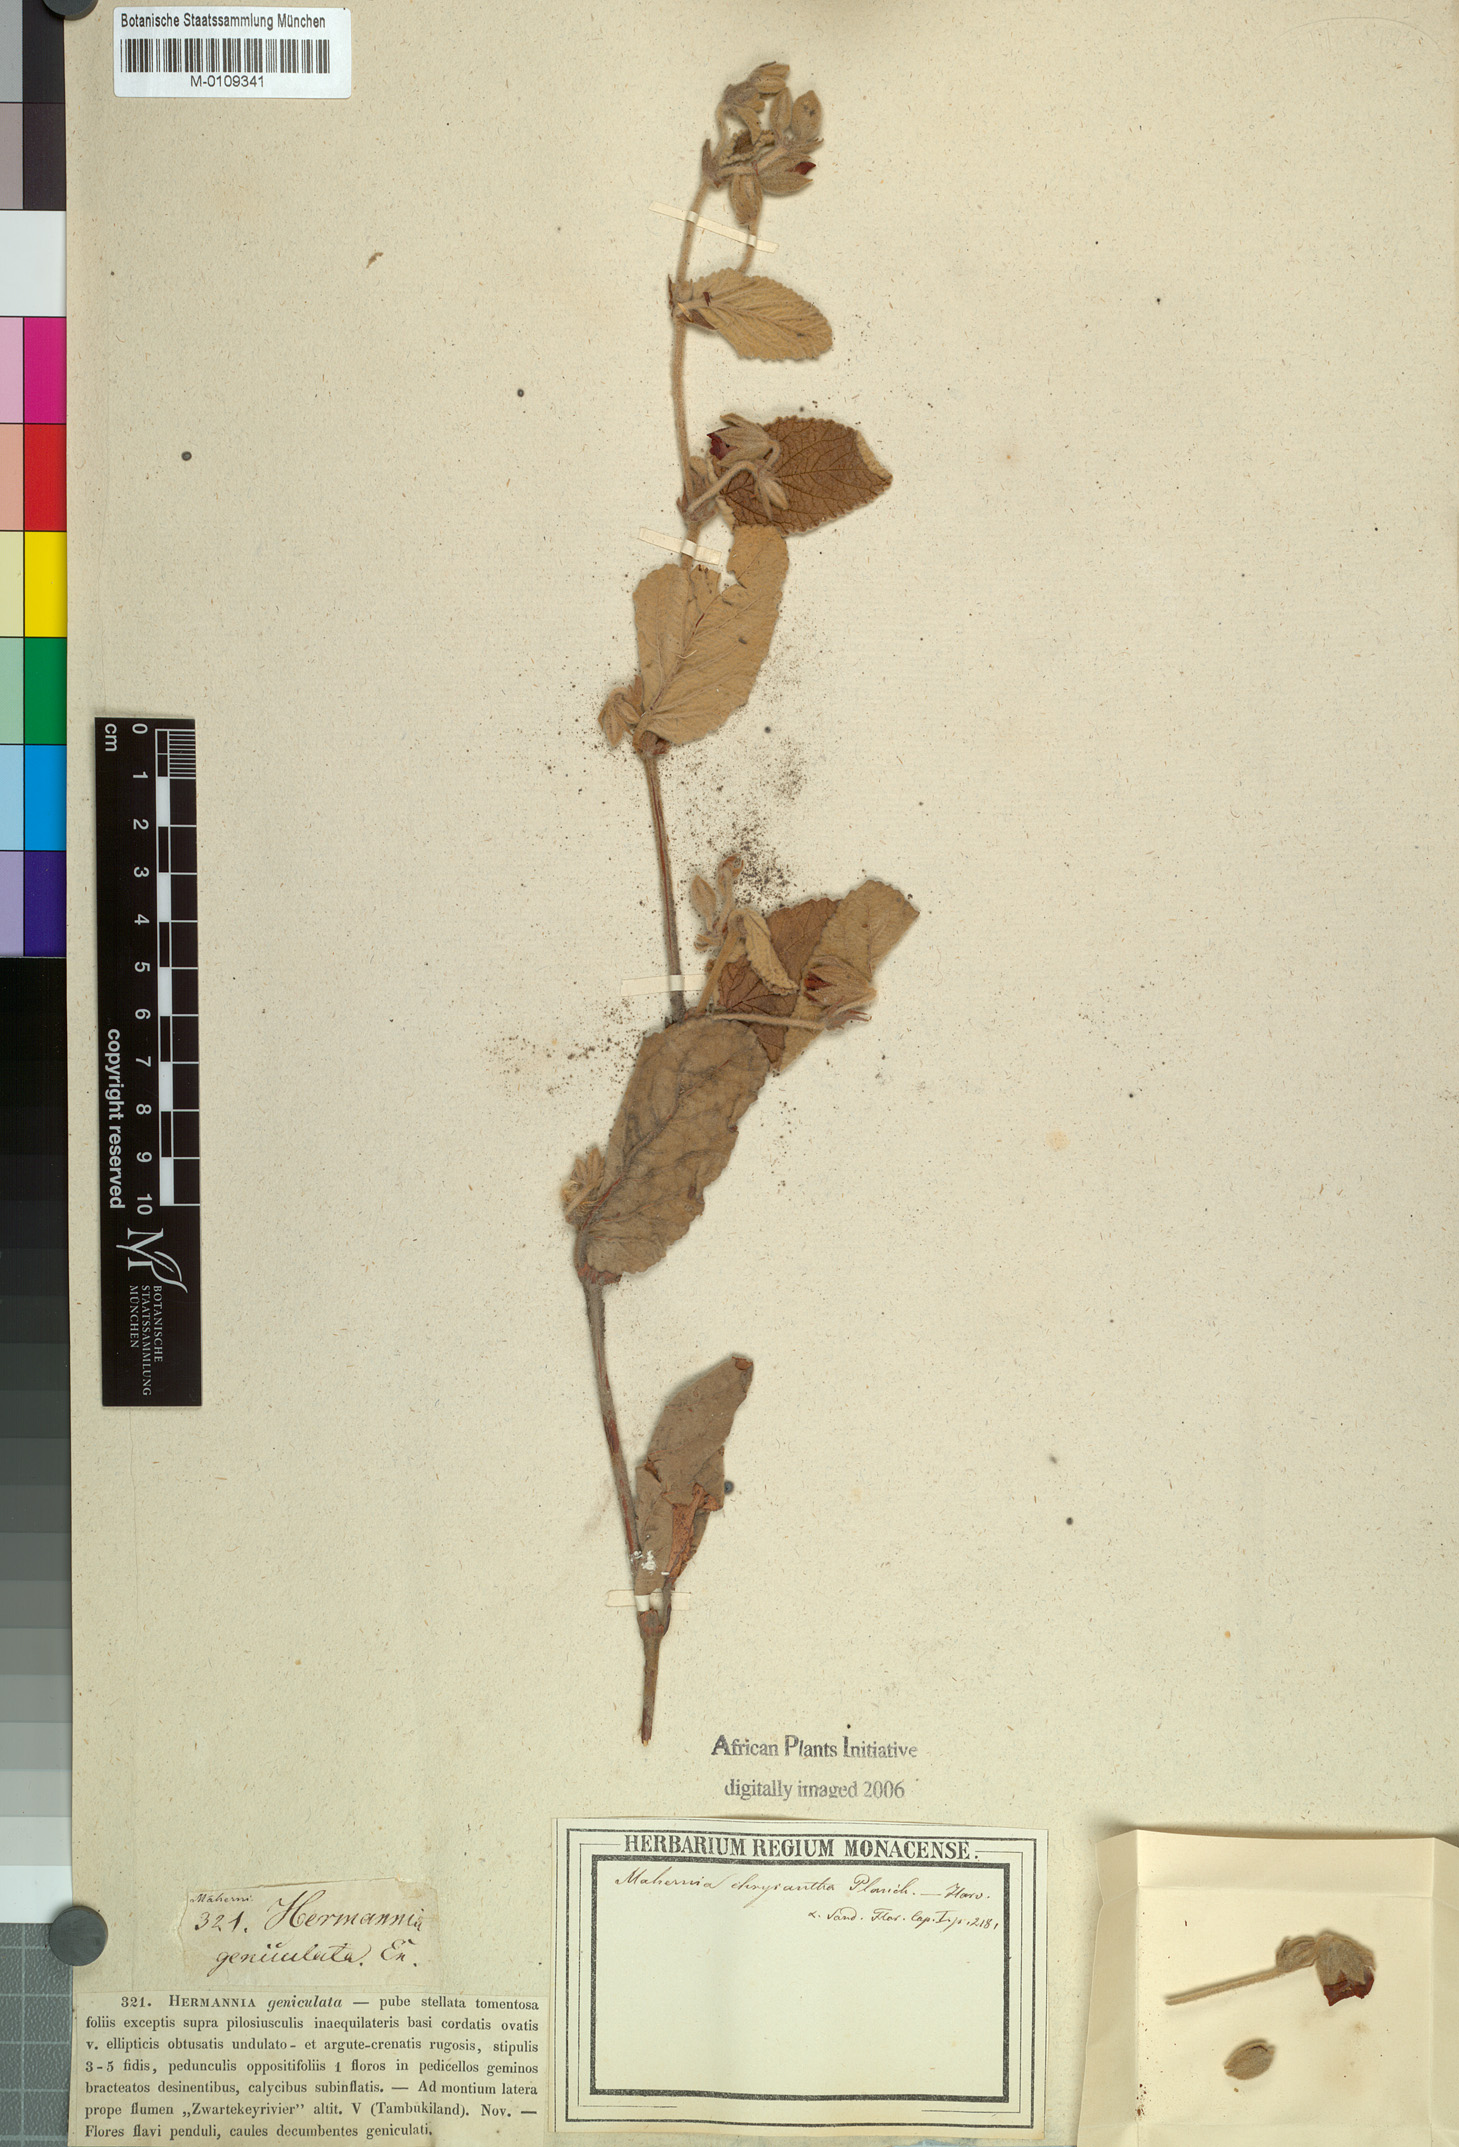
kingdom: Plantae
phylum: Tracheophyta
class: Magnoliopsida
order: Malvales
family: Malvaceae
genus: Hermannia
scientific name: Hermannia gerardii
